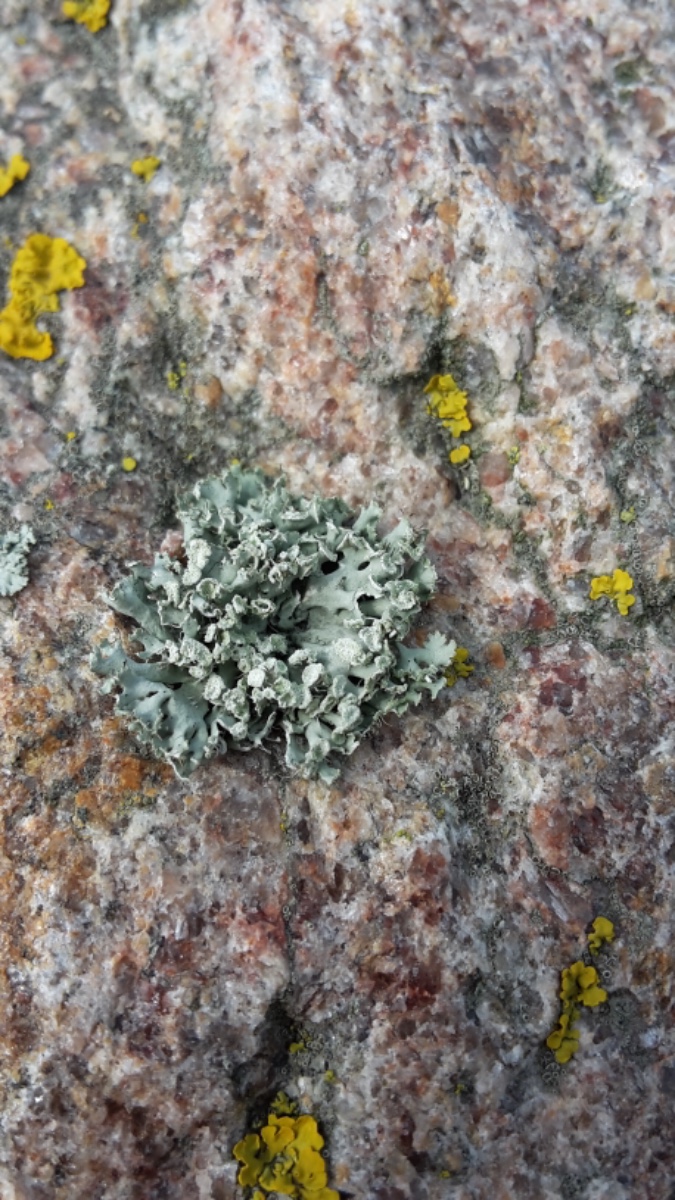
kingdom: Fungi
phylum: Ascomycota
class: Lecanoromycetes
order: Caliciales
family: Physciaceae
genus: Physcia
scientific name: Physcia tenella
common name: spæd rosetlav
